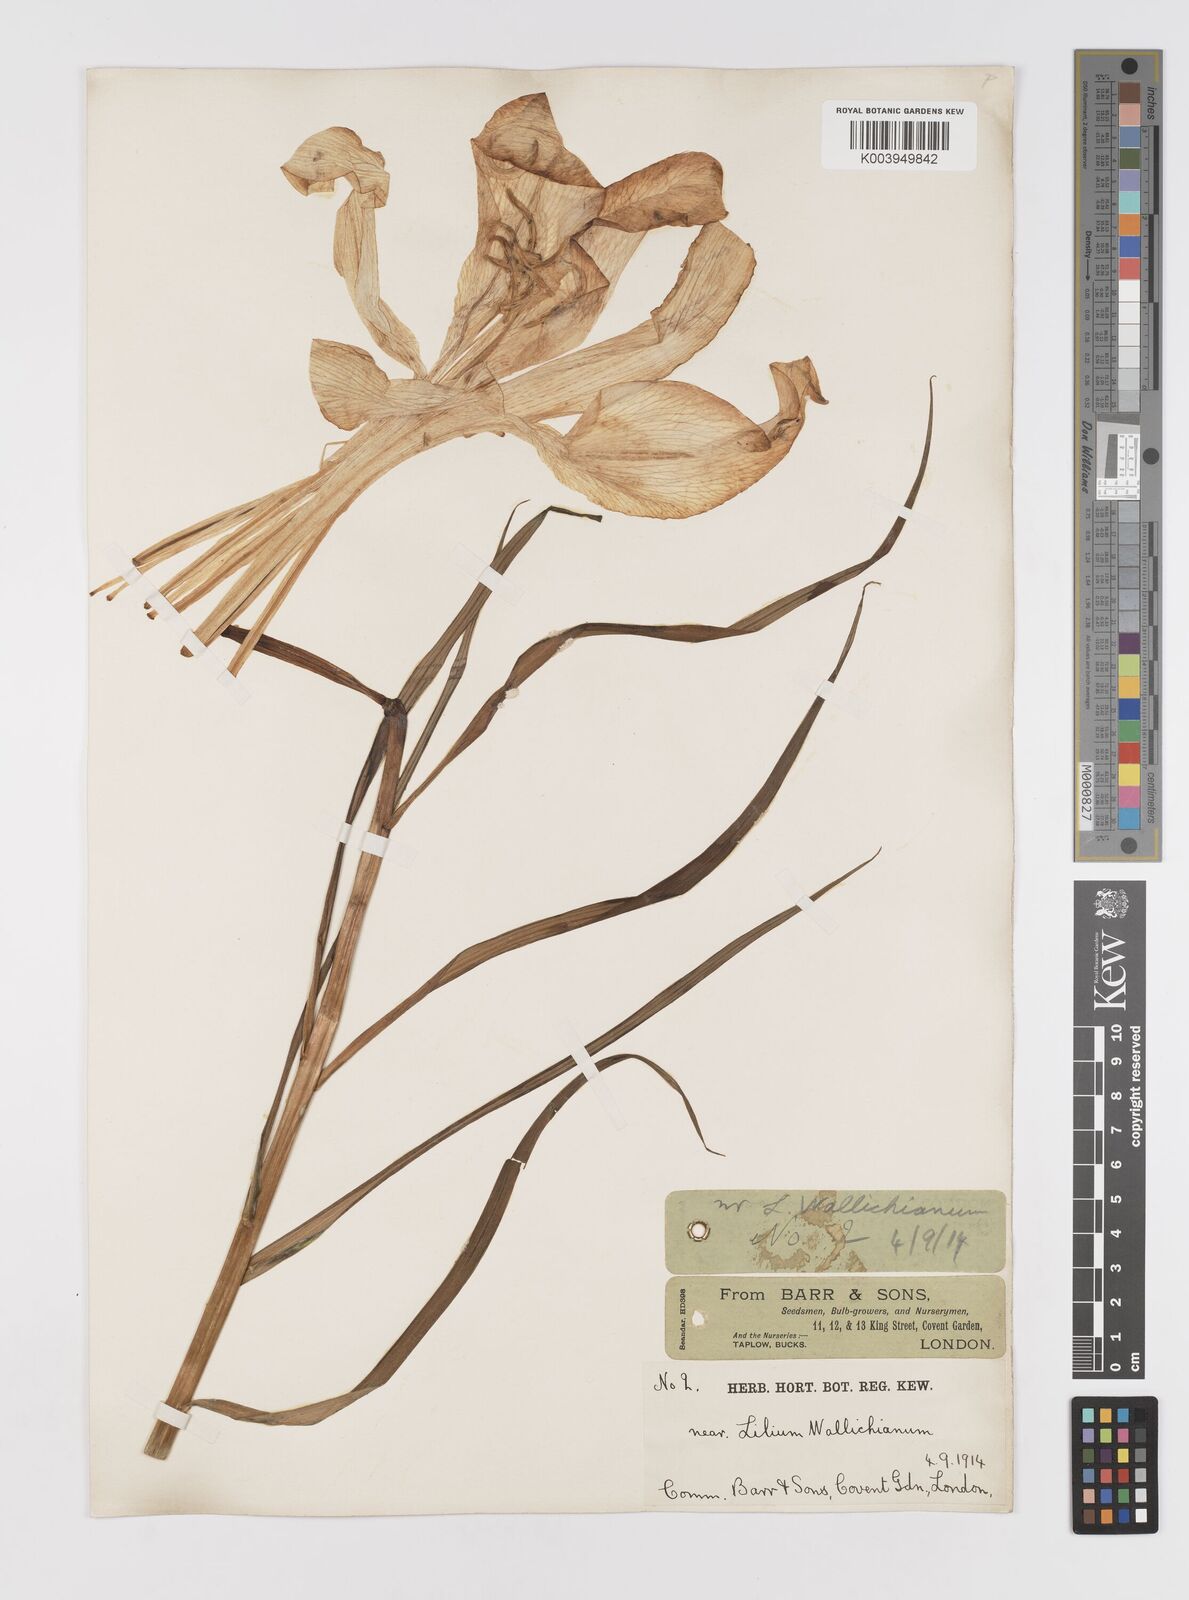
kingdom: Plantae
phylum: Tracheophyta
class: Liliopsida
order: Liliales
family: Liliaceae
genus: Lilium
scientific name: Lilium wallichianum
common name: Wallich's lily
